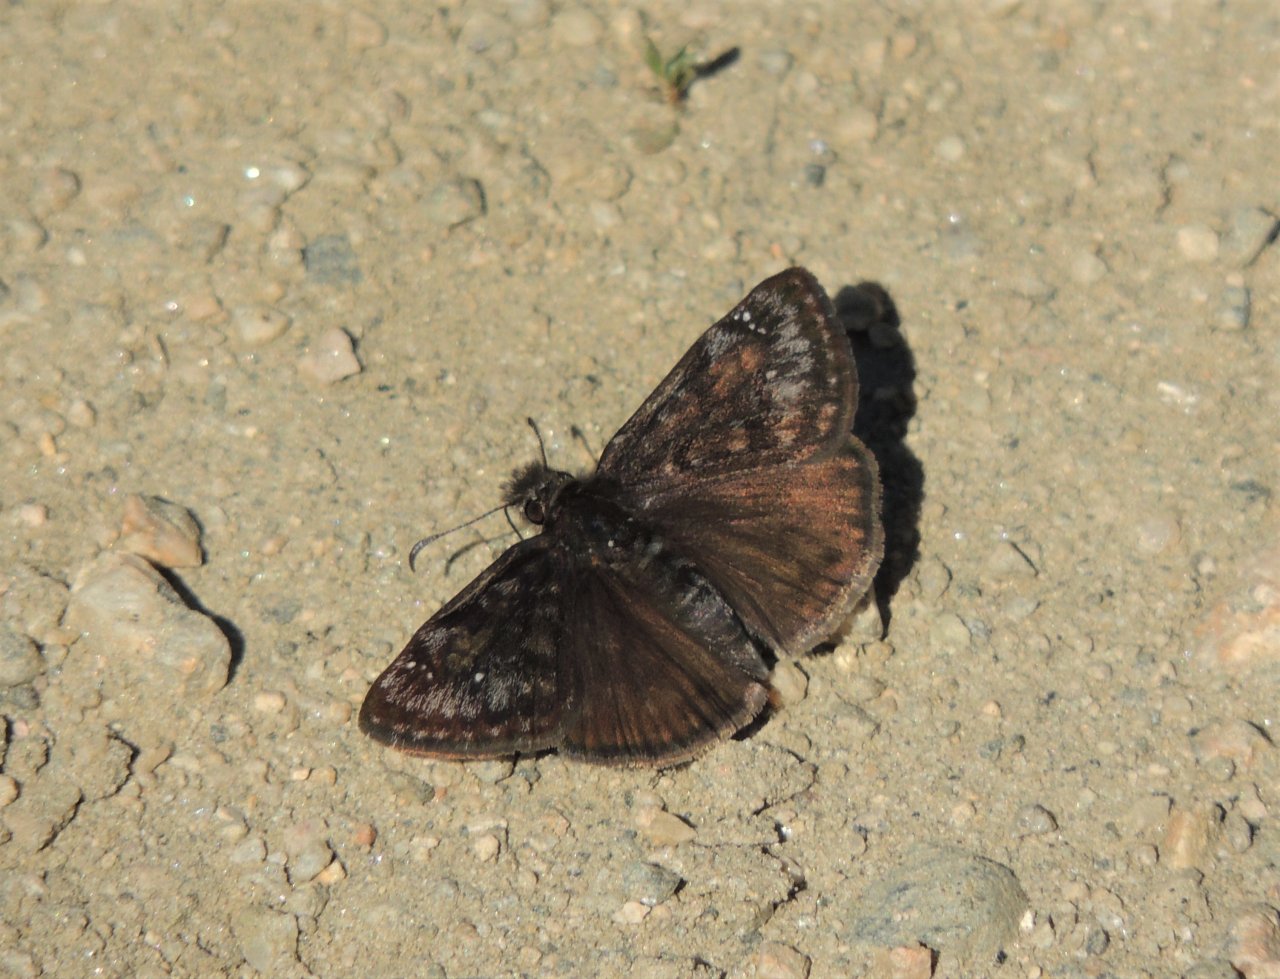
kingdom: Animalia
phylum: Arthropoda
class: Insecta
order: Lepidoptera
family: Hesperiidae
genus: Gesta
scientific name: Gesta
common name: Persius Duskywing
